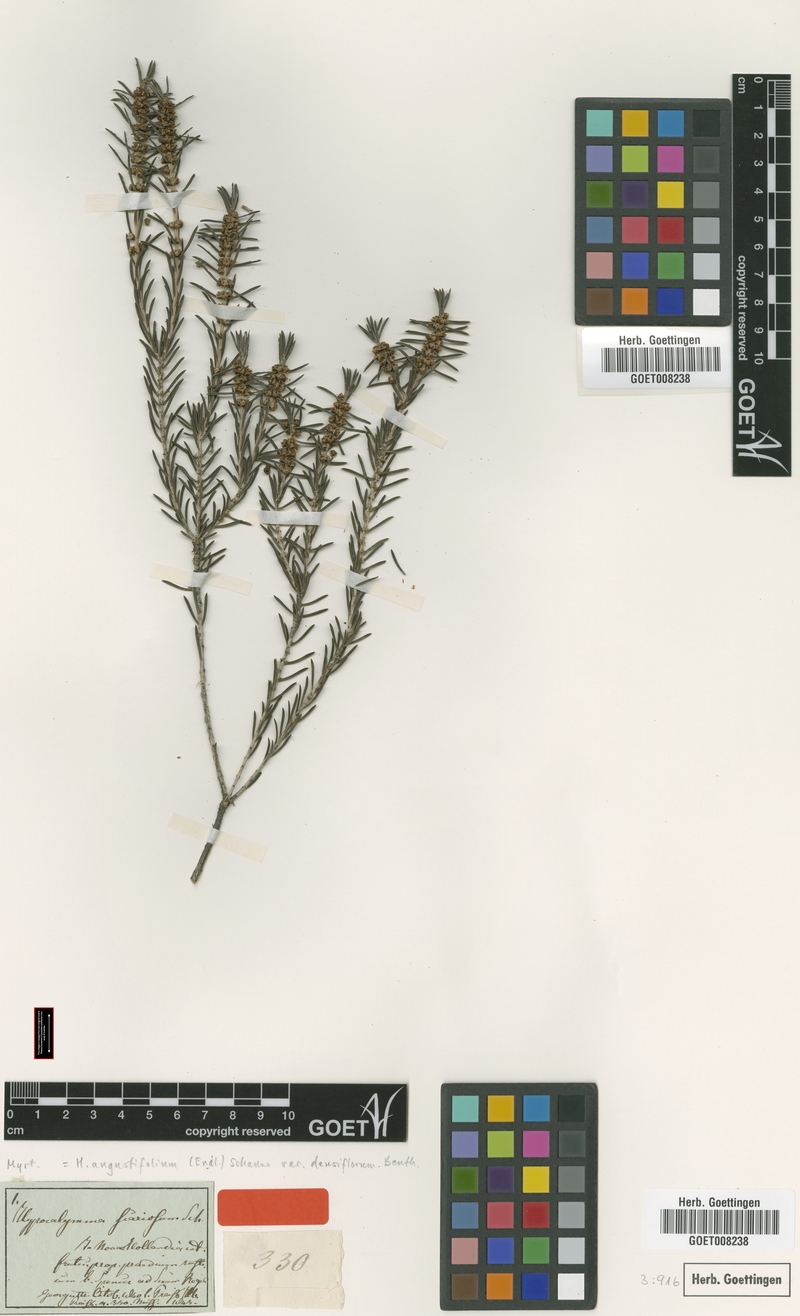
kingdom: Plantae
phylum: Tracheophyta
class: Magnoliopsida
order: Myrtales
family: Myrtaceae
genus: Hypocalymma
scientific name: Hypocalymma scariosum
